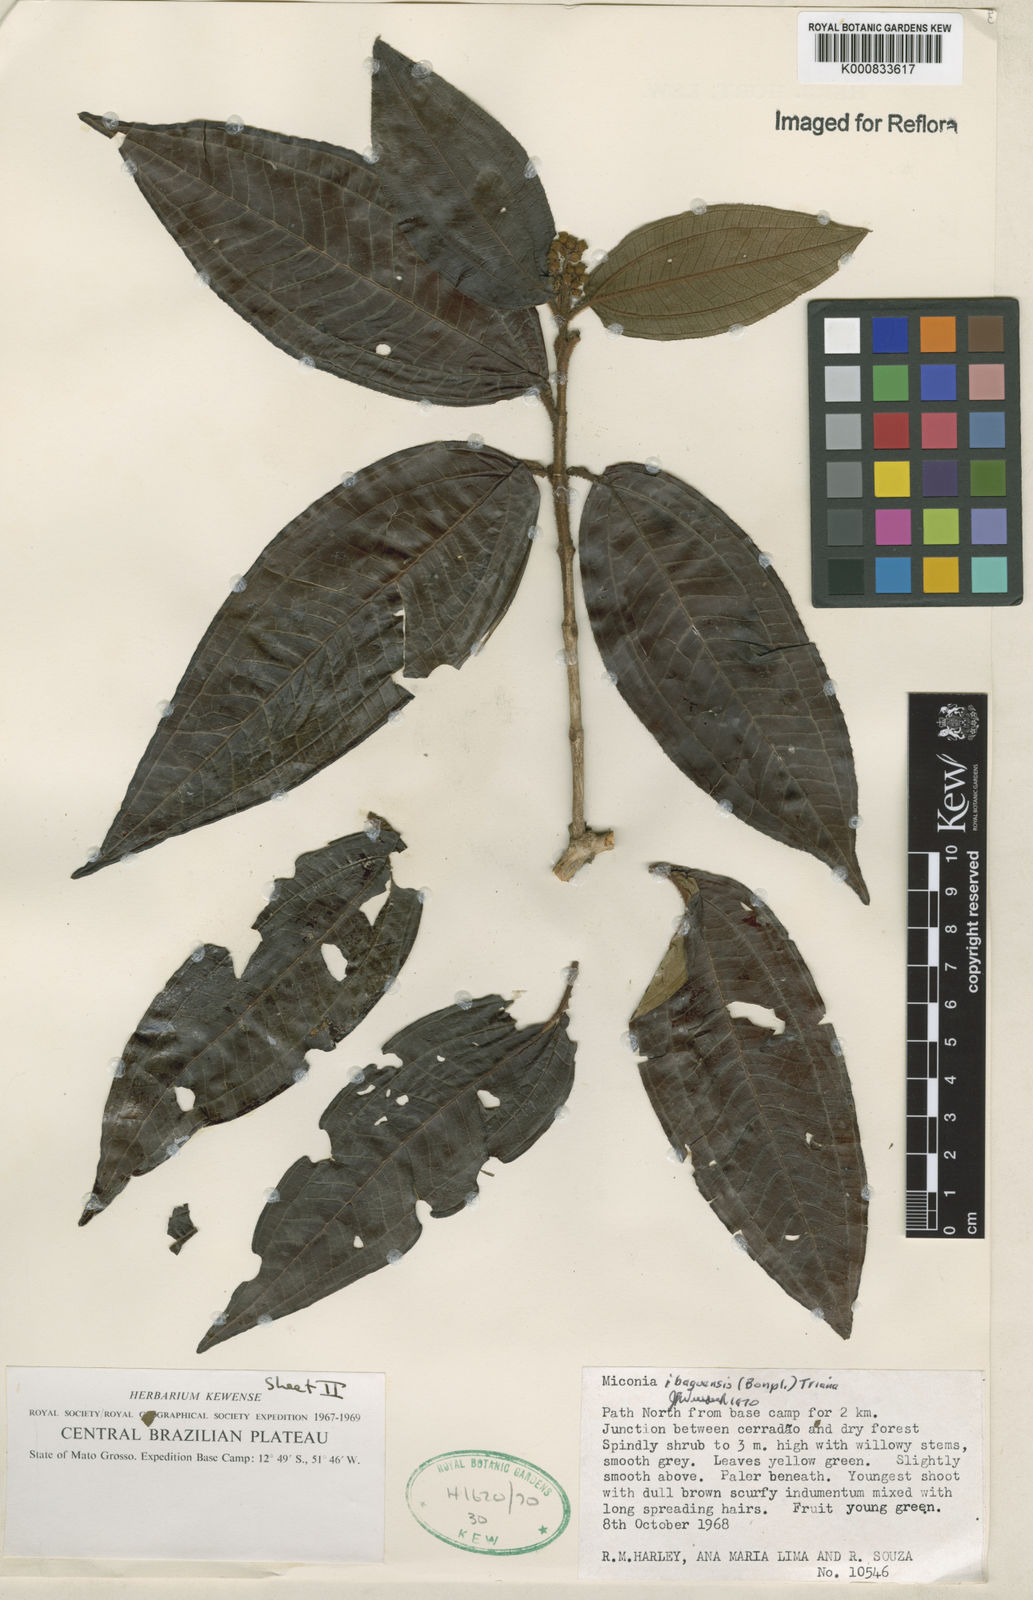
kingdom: Plantae
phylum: Tracheophyta
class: Magnoliopsida
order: Myrtales
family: Melastomataceae
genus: Miconia
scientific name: Miconia ibaguensis
